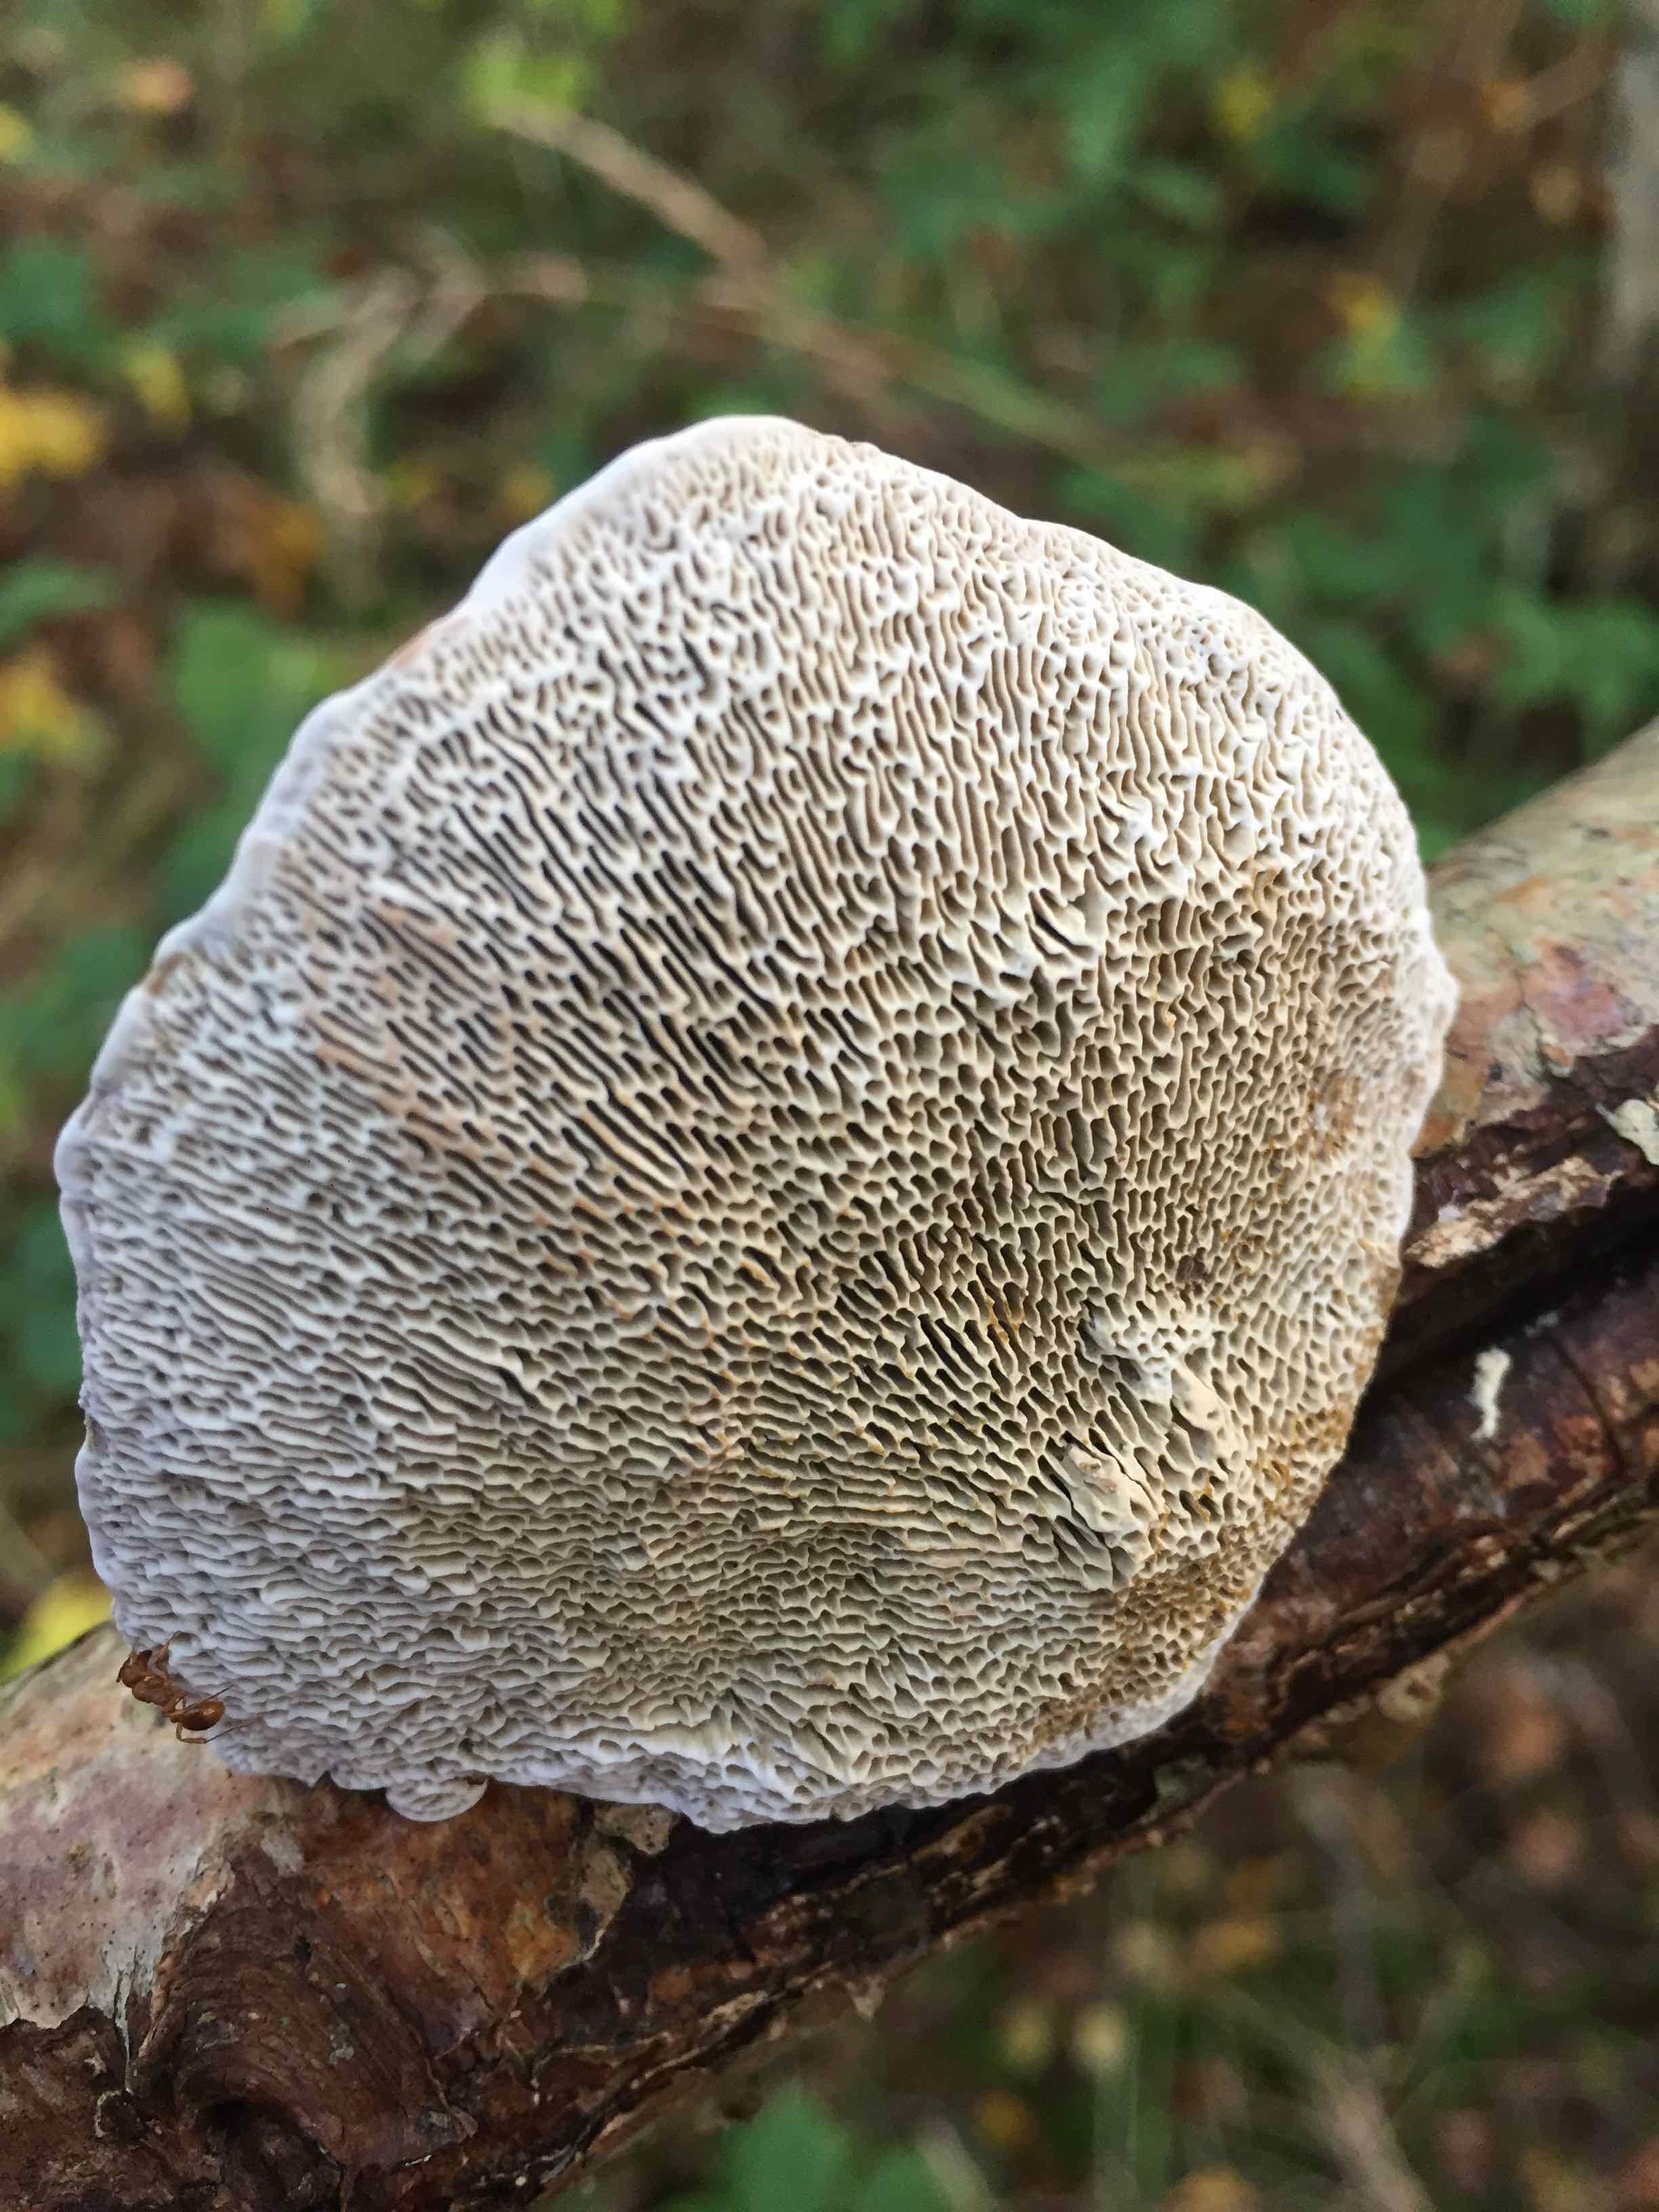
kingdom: Fungi
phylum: Basidiomycota
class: Agaricomycetes
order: Polyporales
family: Polyporaceae
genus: Daedaleopsis
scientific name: Daedaleopsis confragosa
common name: rødmende læderporesvamp
